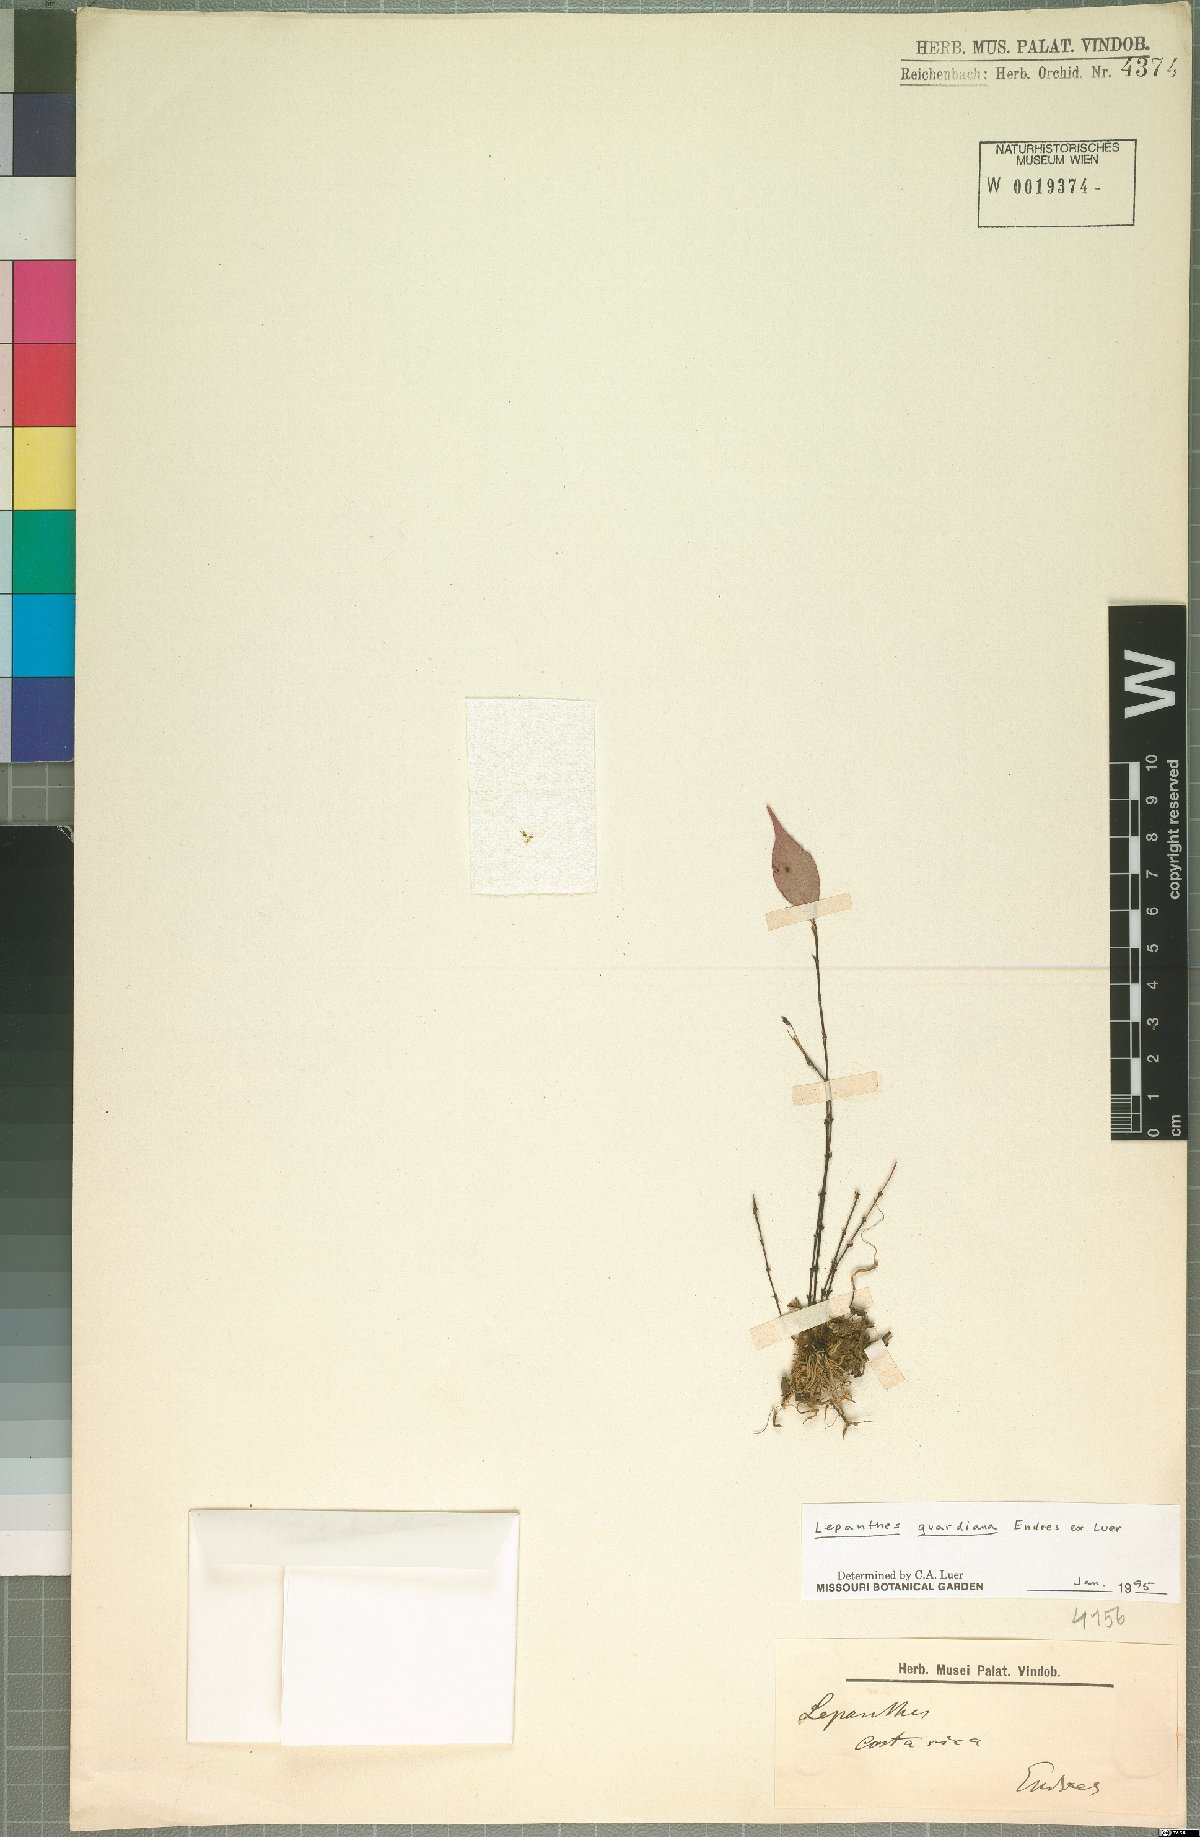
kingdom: Plantae
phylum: Tracheophyta
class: Liliopsida
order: Asparagales
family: Orchidaceae
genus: Lepanthes
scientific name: Lepanthes guardiana
